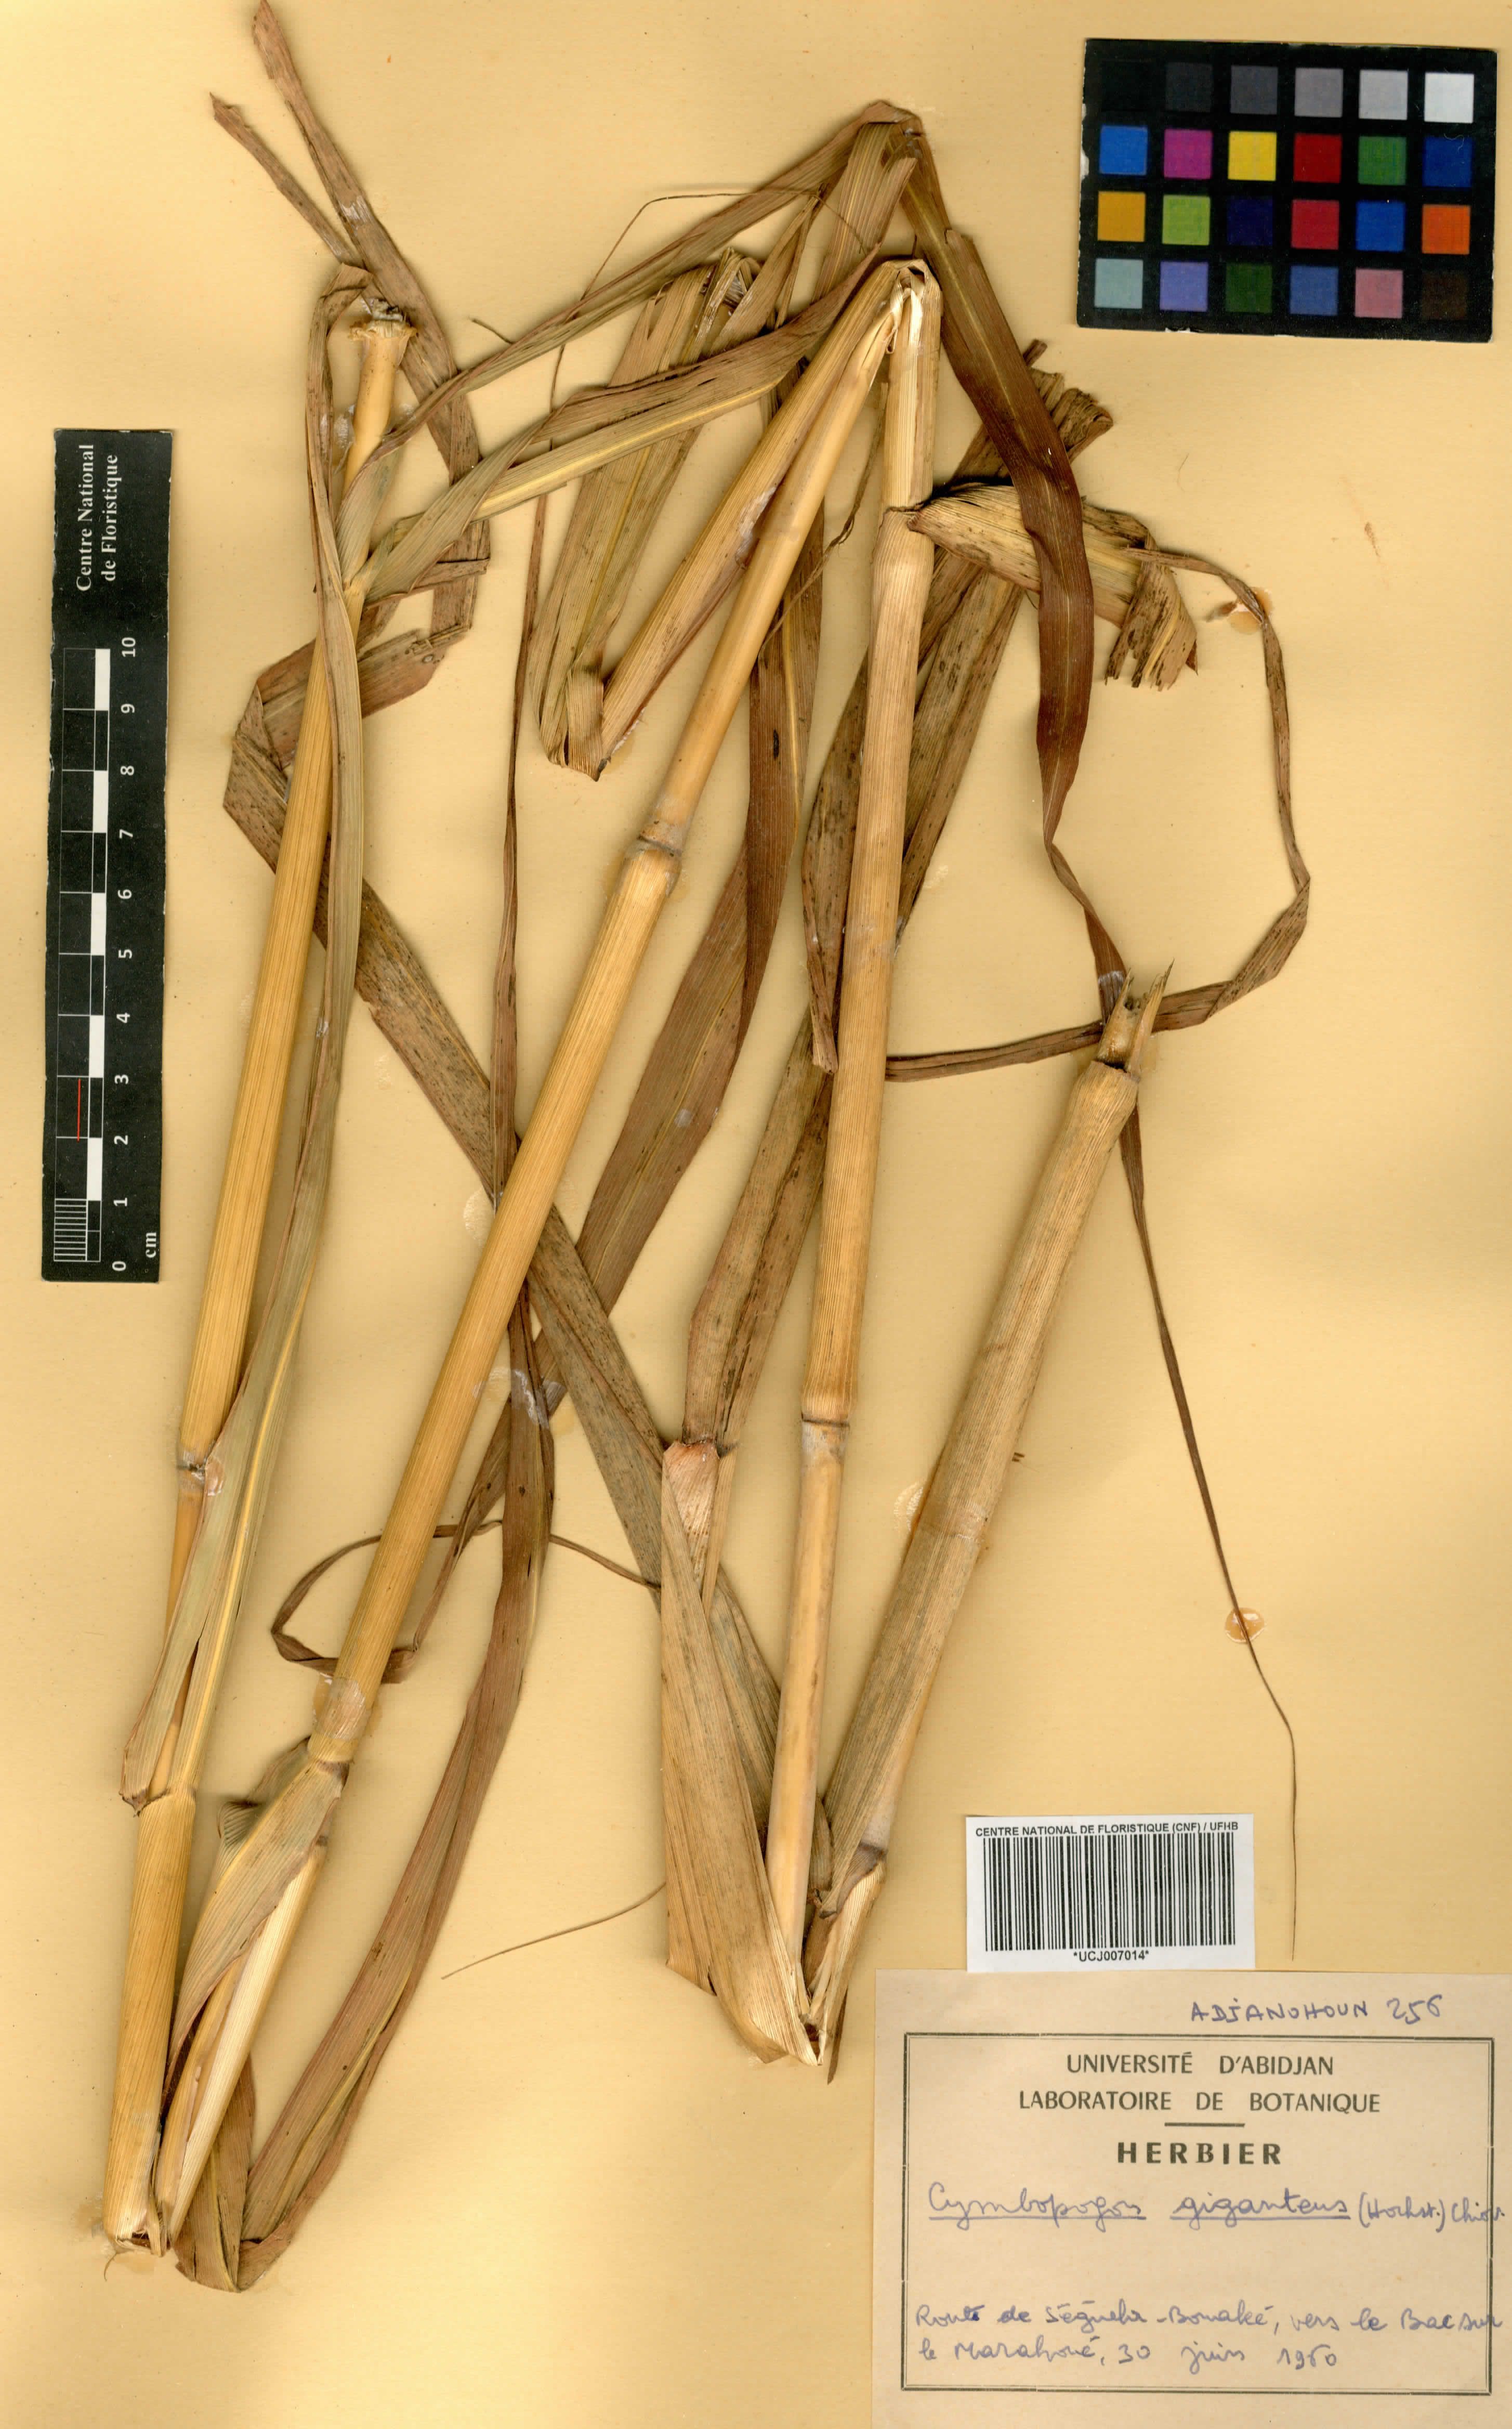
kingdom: Plantae
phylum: Tracheophyta
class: Liliopsida
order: Poales
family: Poaceae
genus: Cymbopogon
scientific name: Cymbopogon giganteus
